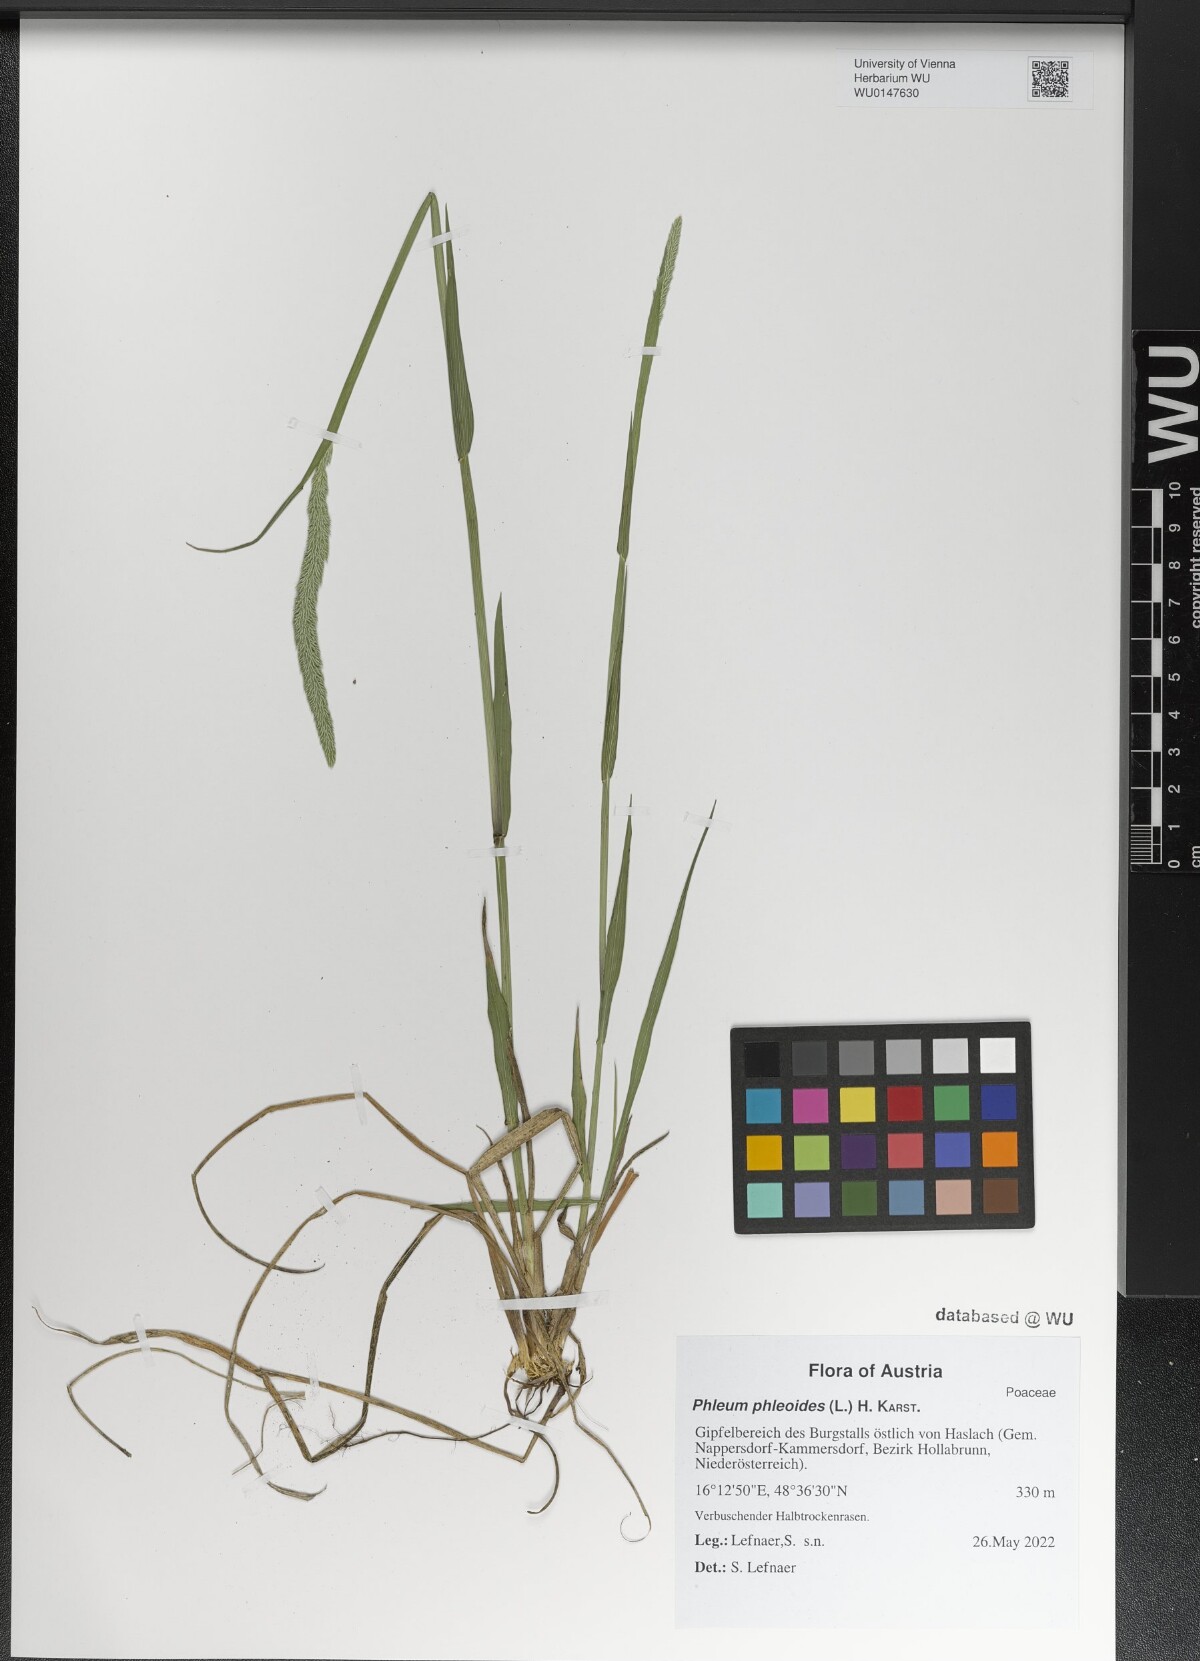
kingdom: Plantae
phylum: Tracheophyta
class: Liliopsida
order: Poales
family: Poaceae
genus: Phleum
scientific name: Phleum phleoides
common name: Purple-stem cat's-tail
